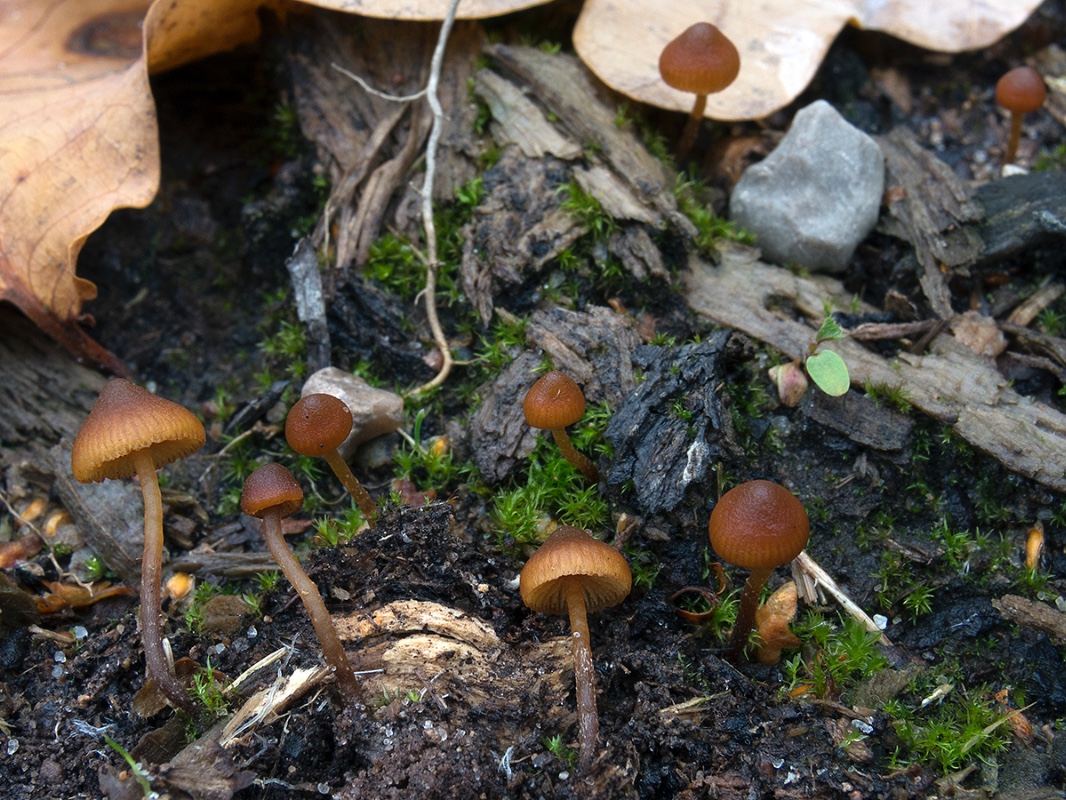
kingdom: Fungi
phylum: Basidiomycota
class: Agaricomycetes
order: Agaricales
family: Hymenogastraceae
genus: Galerina
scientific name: Galerina triscopa
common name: spidspuklet hjelmhat
